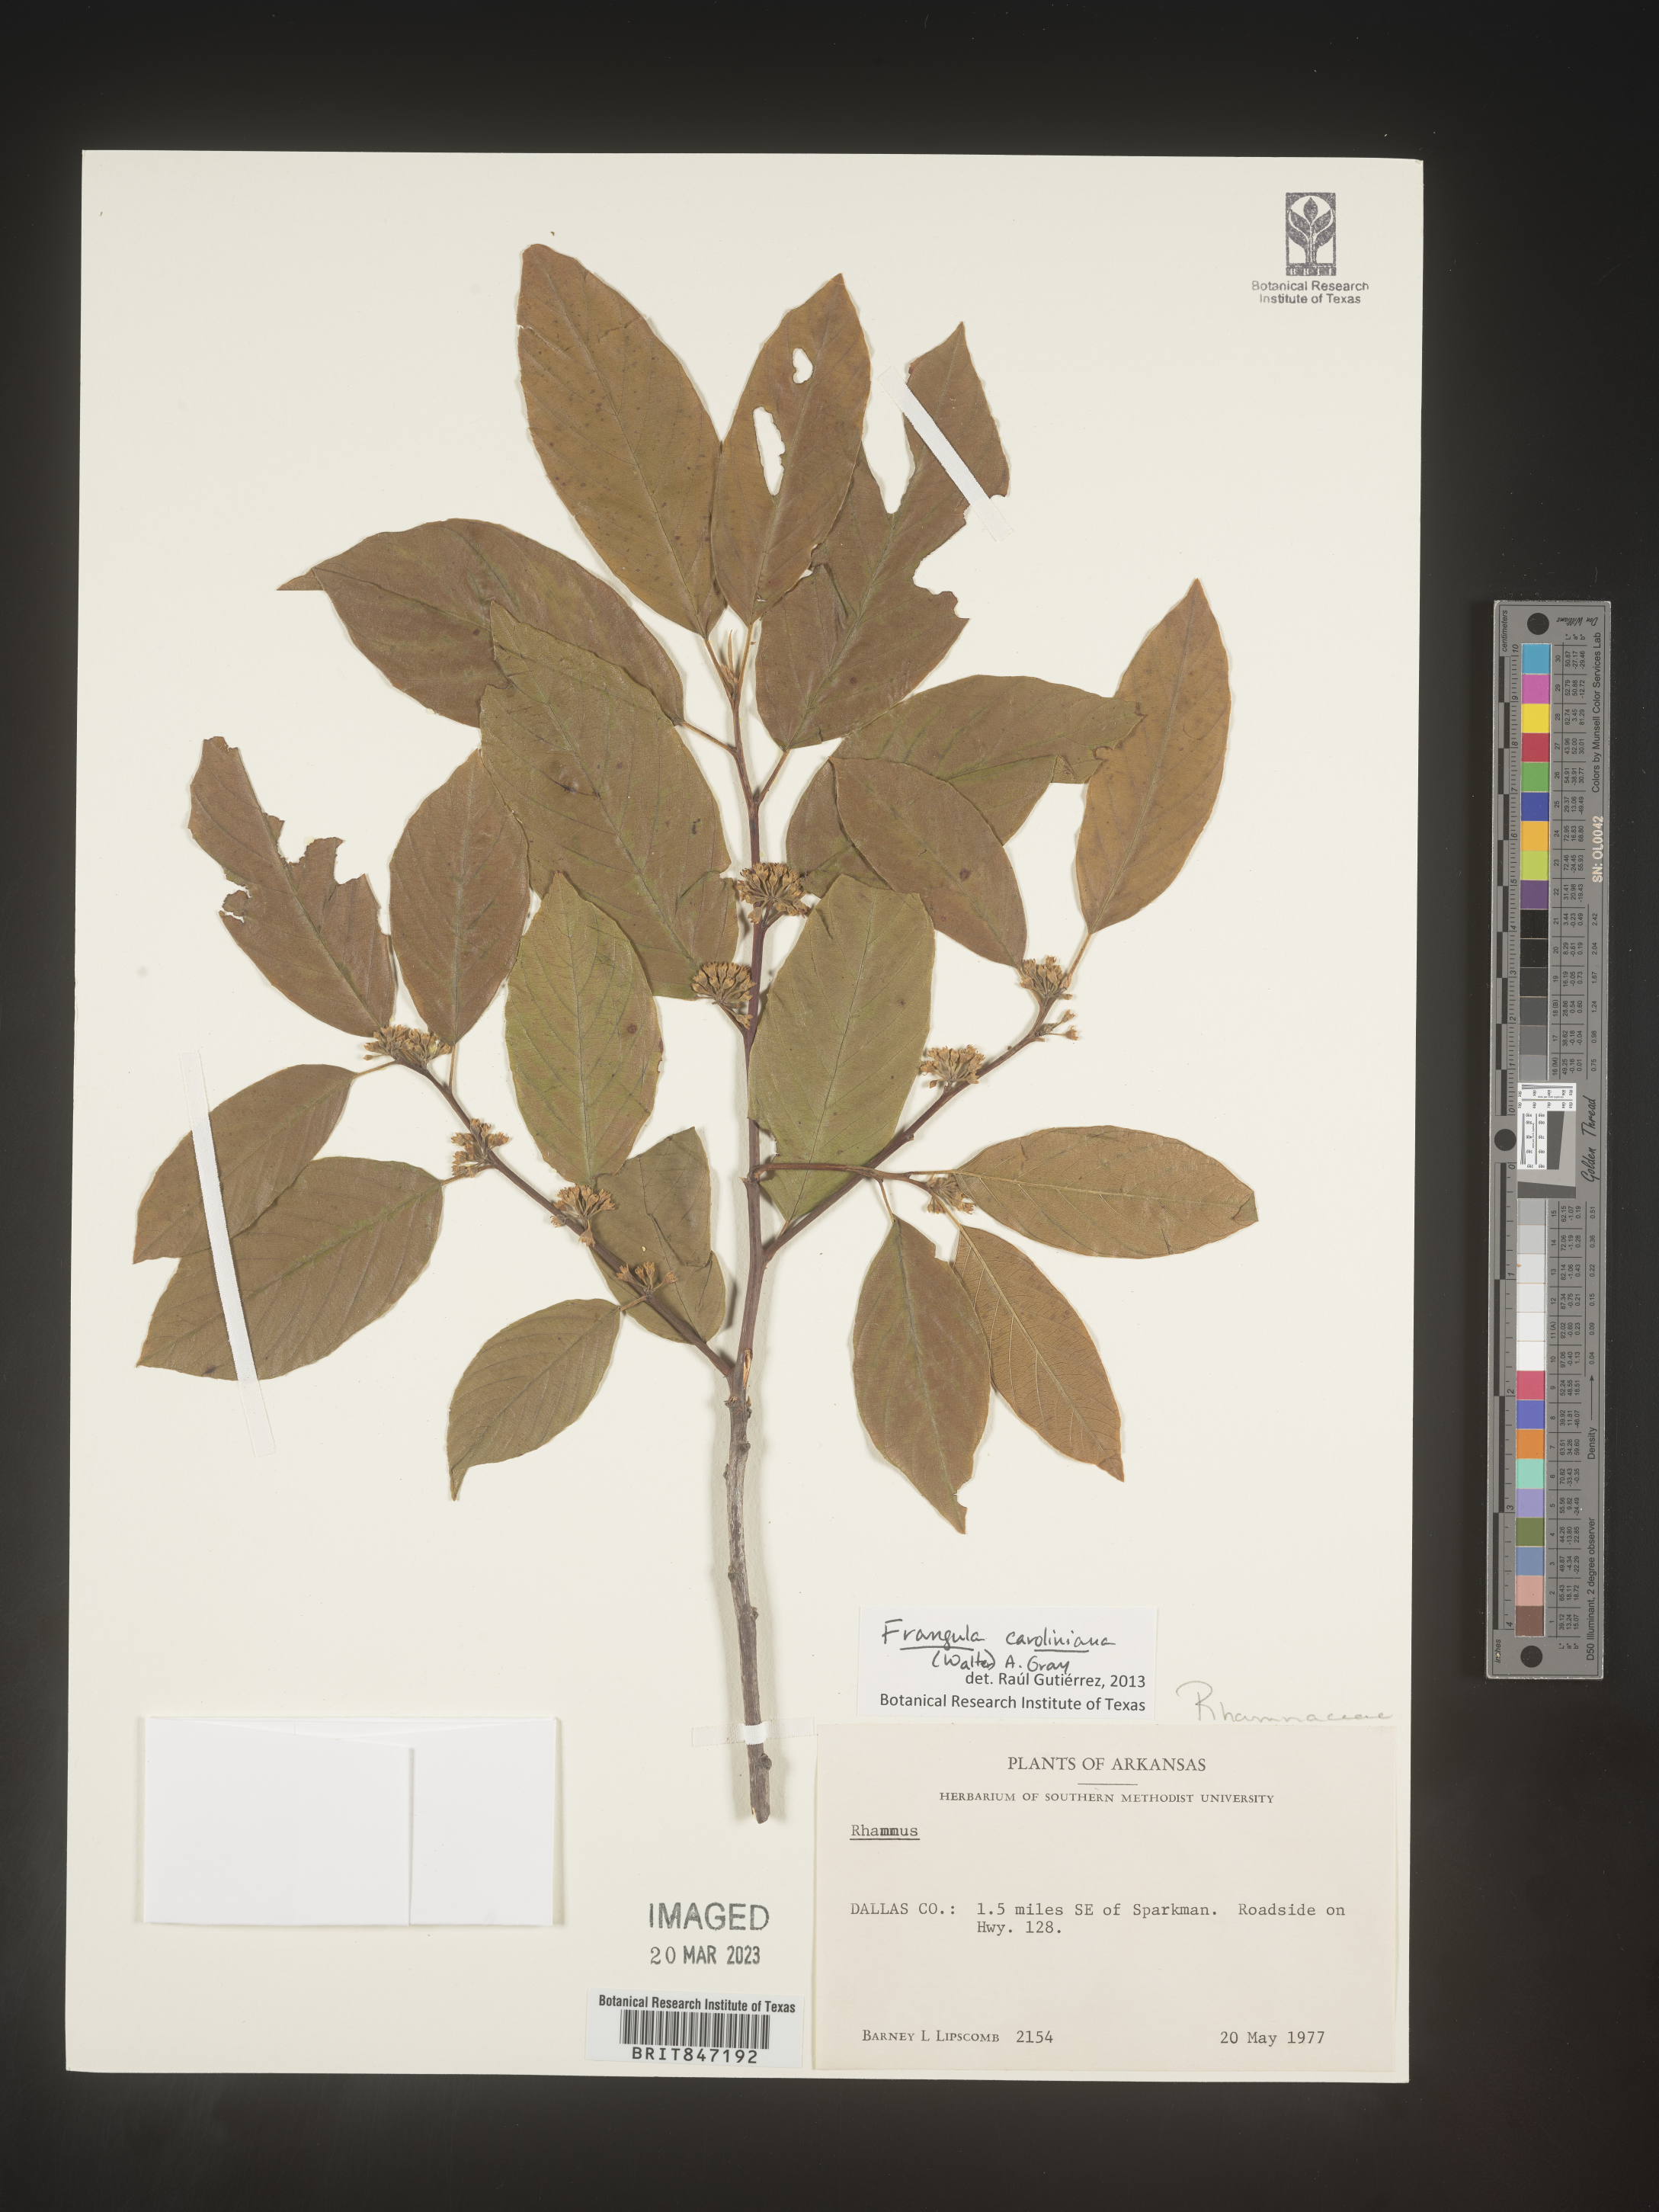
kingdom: Plantae
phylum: Tracheophyta
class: Magnoliopsida
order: Rosales
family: Rhamnaceae
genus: Frangula
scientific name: Frangula
